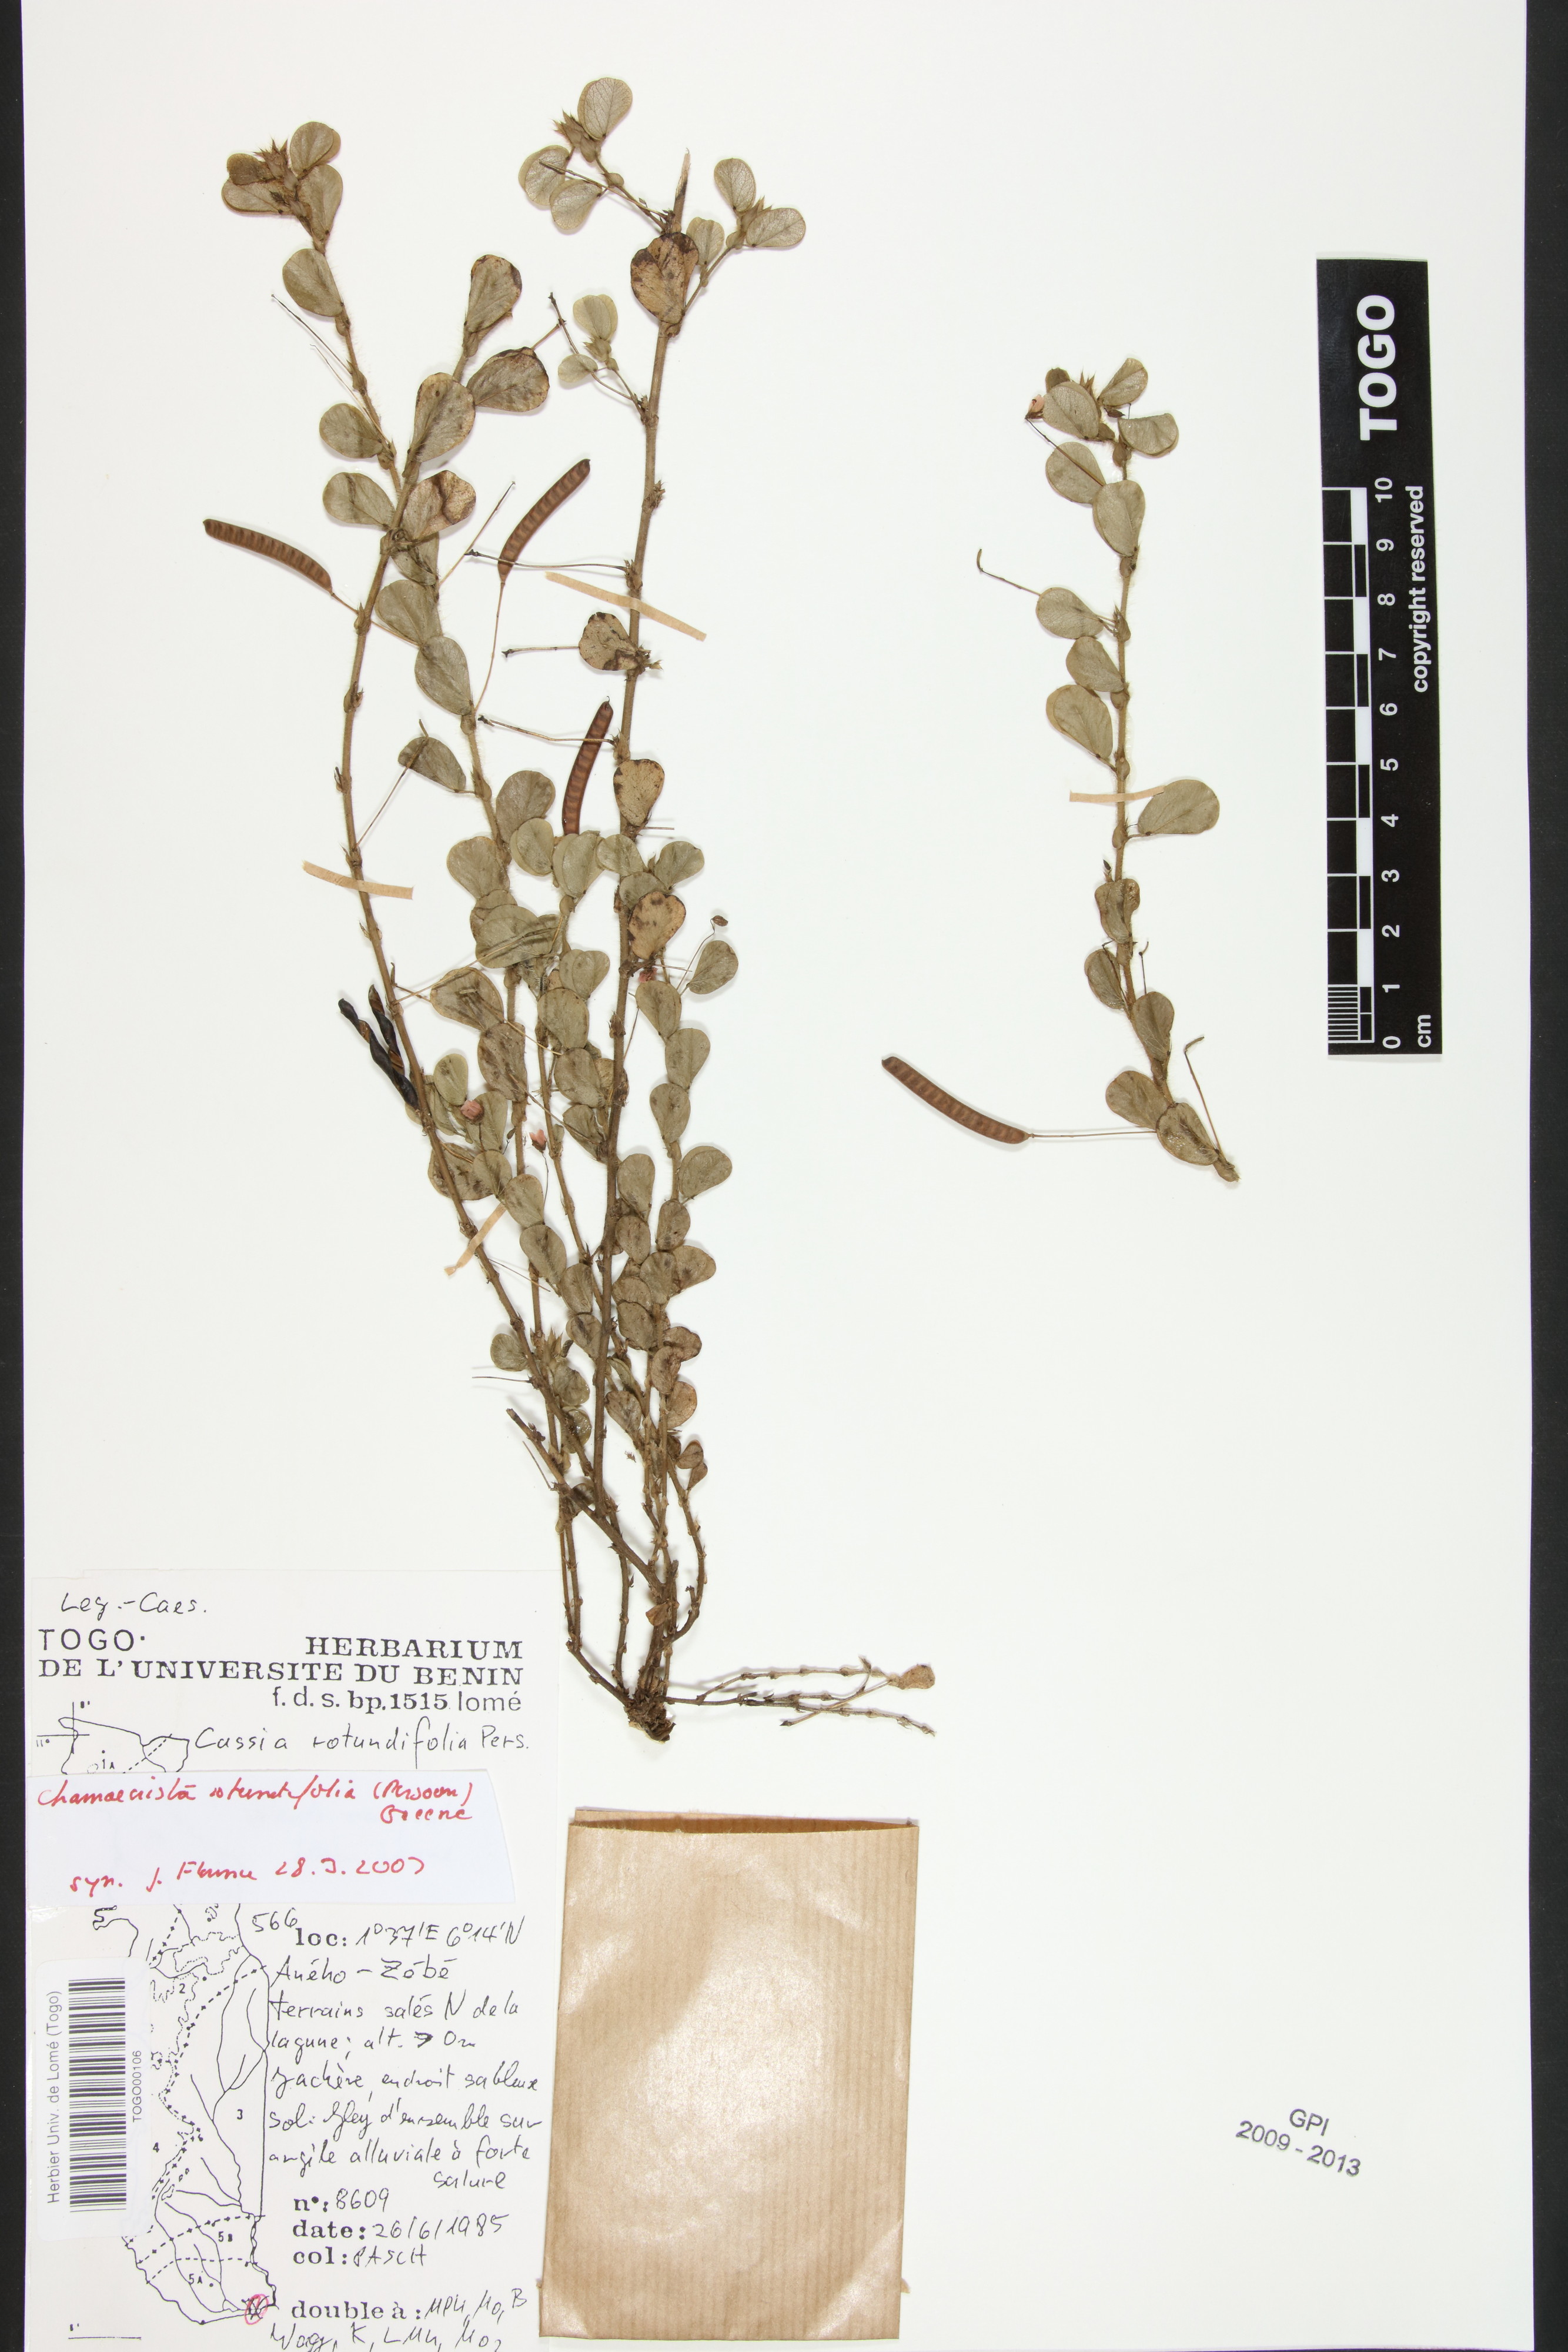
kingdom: Plantae
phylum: Tracheophyta
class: Magnoliopsida
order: Fabales
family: Fabaceae
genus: Chamaecrista
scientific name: Chamaecrista rotundifolia
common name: Round-leaf cassia
